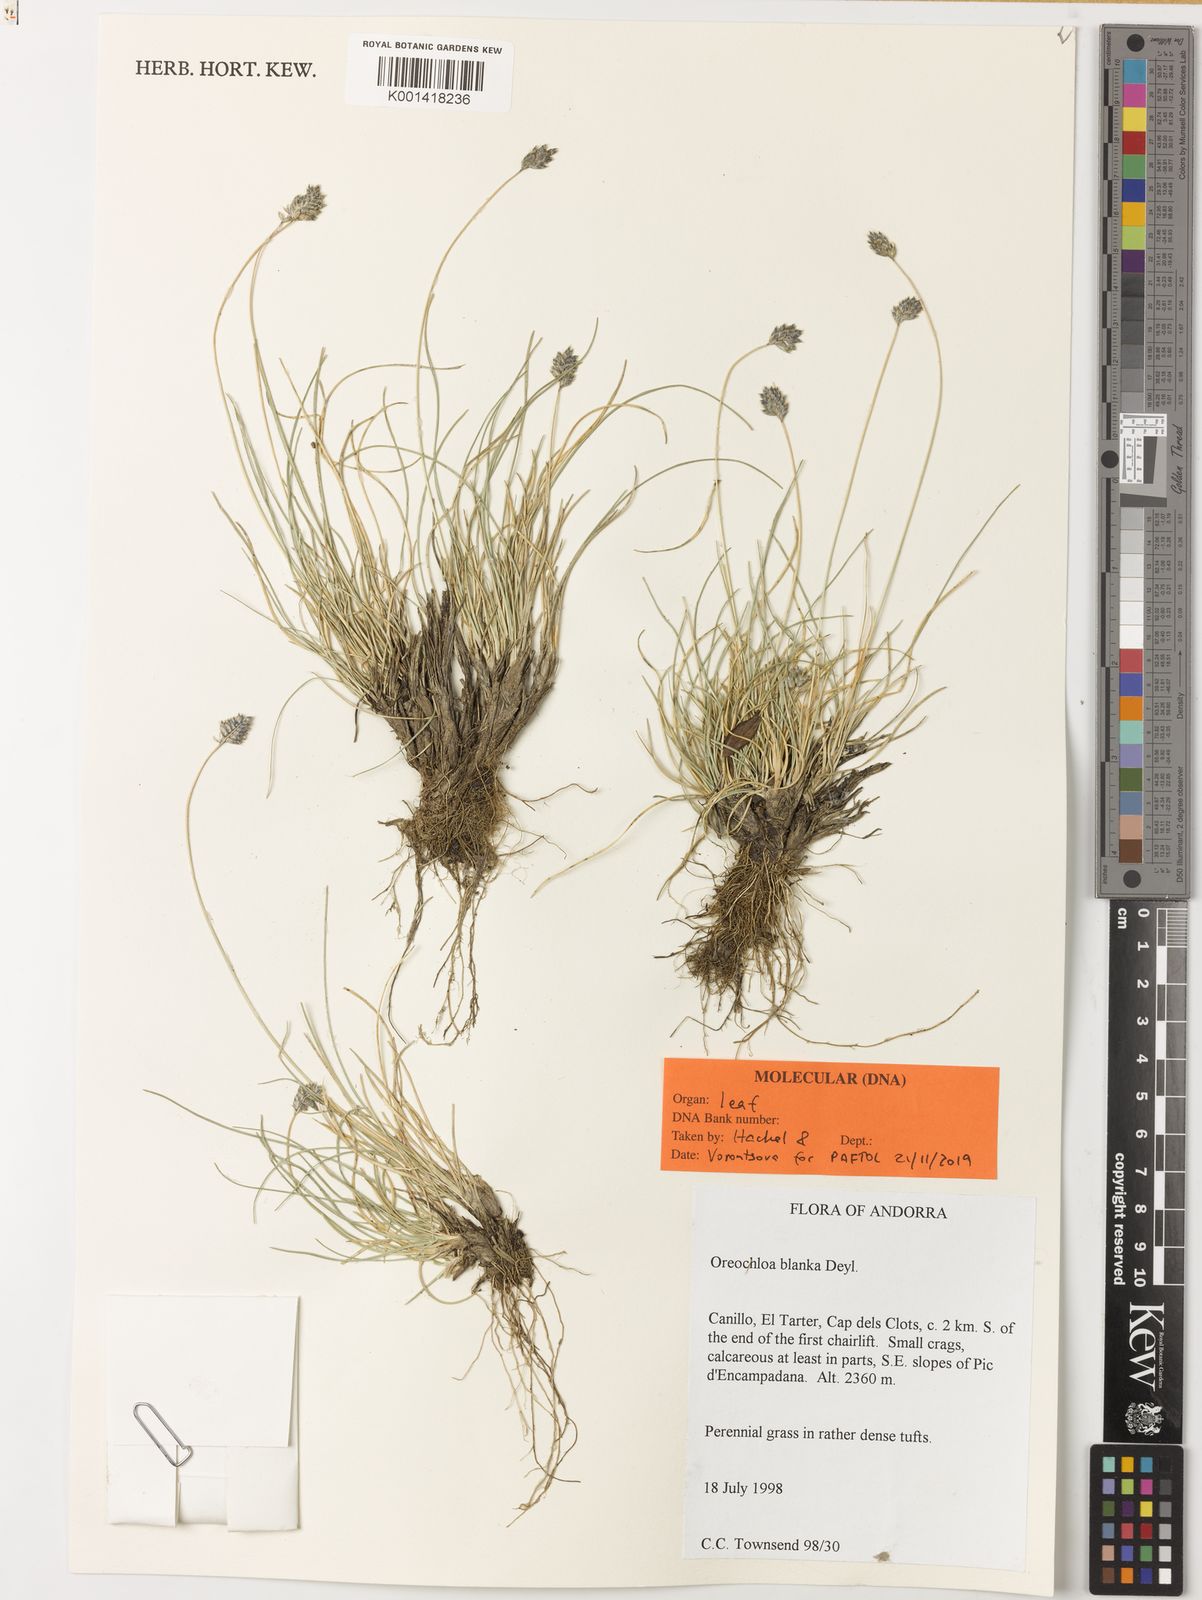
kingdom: Plantae
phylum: Tracheophyta
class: Liliopsida
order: Poales
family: Poaceae
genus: Oreochloa
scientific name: Oreochloa elegans
